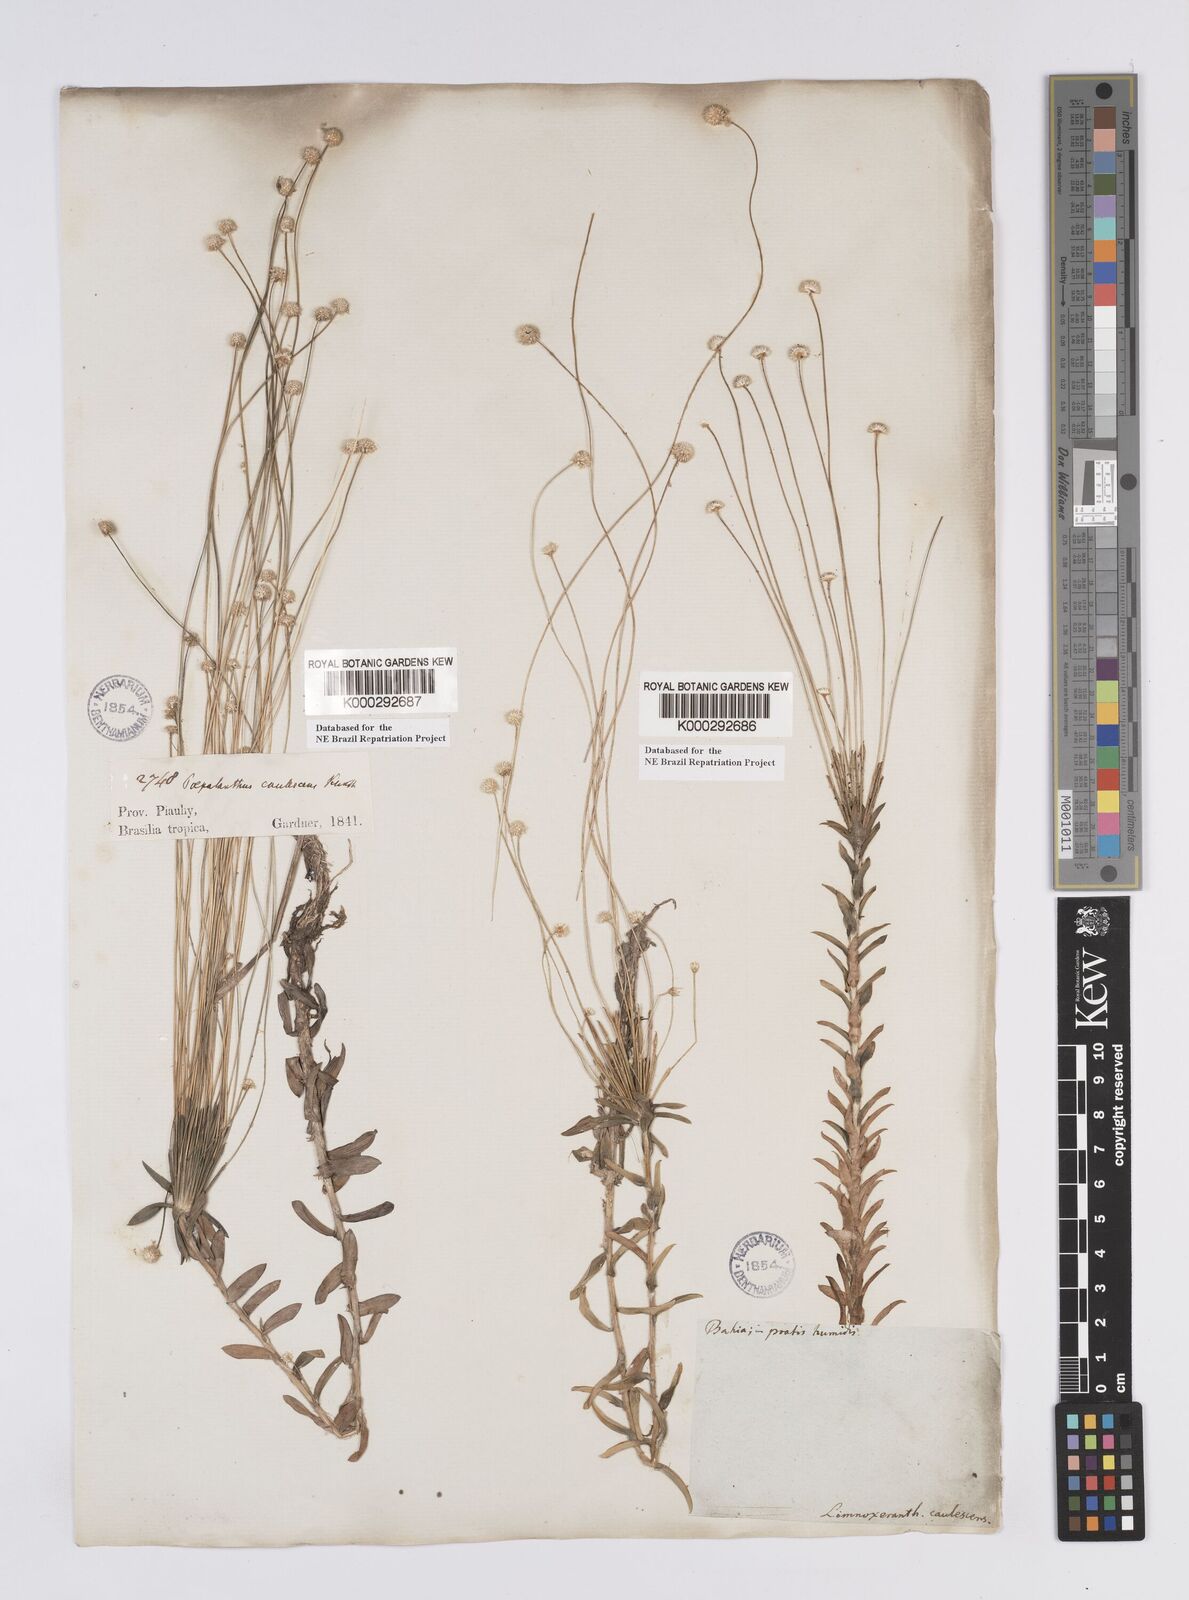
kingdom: Plantae
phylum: Tracheophyta
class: Liliopsida
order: Poales
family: Eriocaulaceae
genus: Syngonanthus
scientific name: Syngonanthus caulescens
